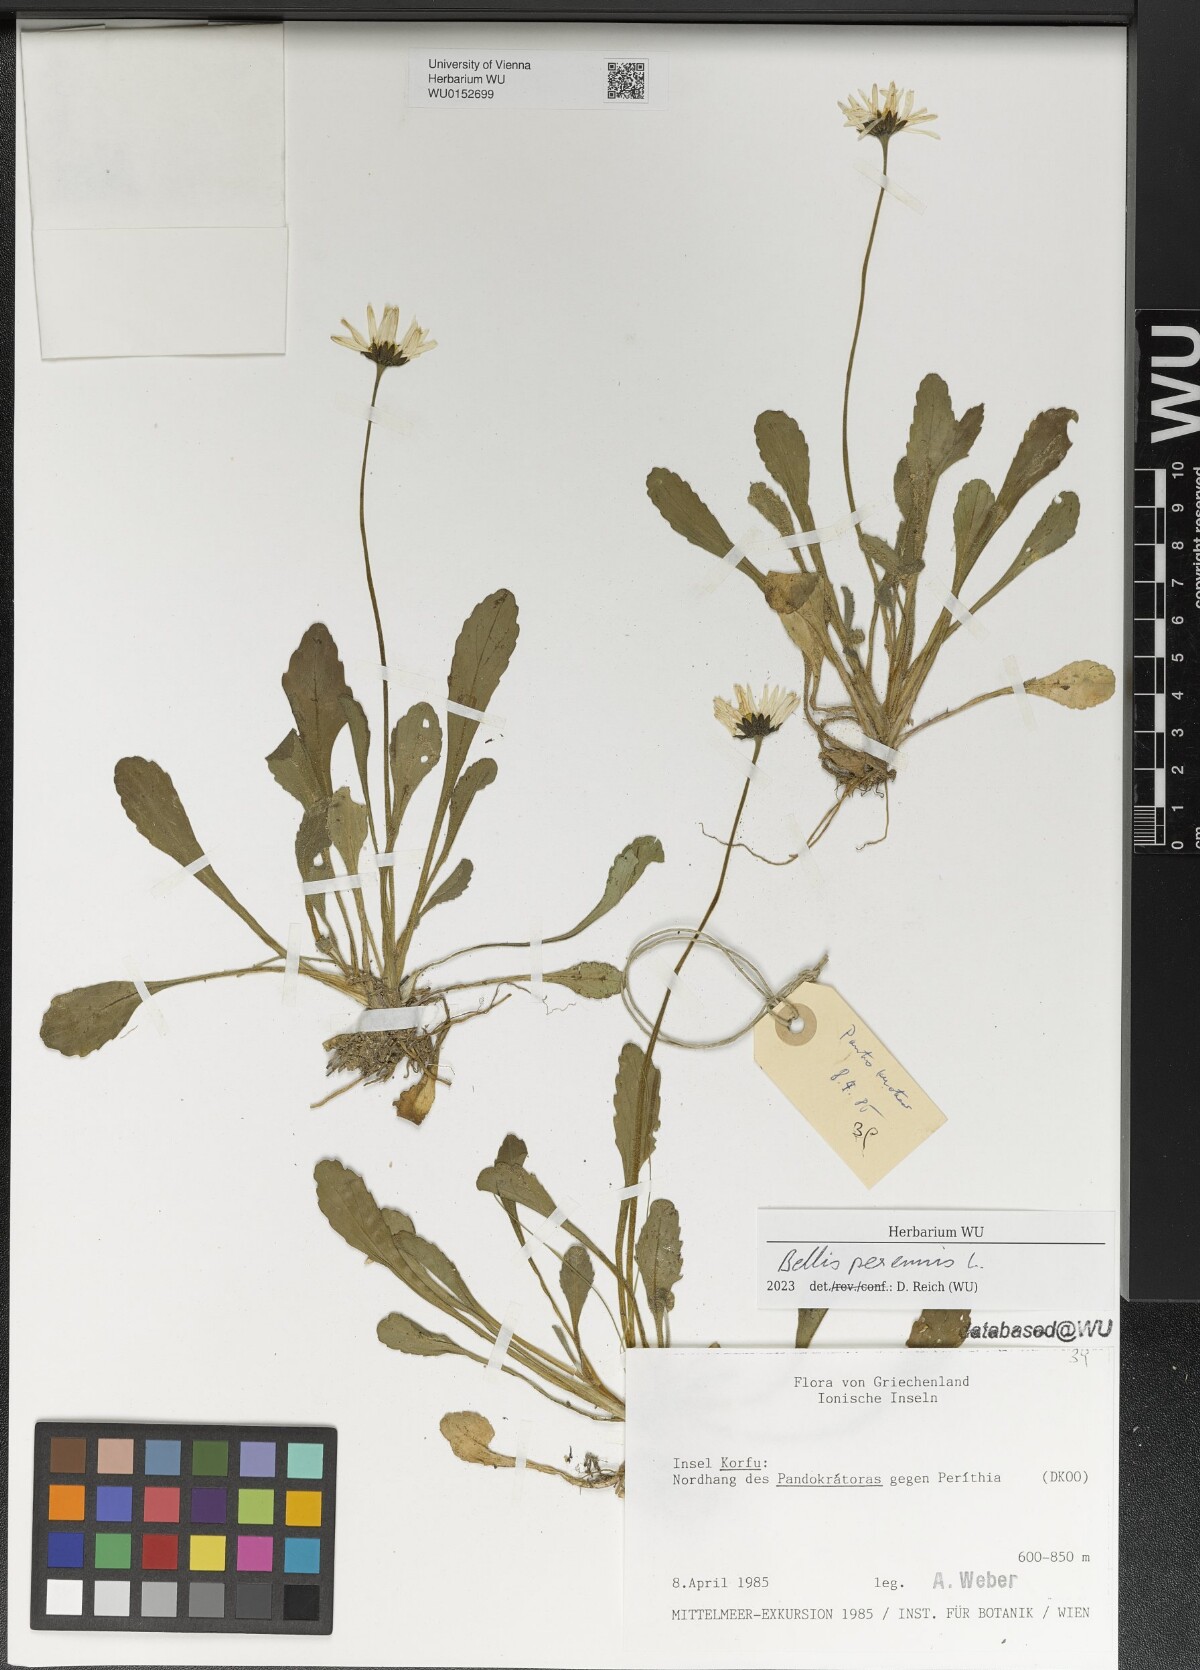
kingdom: Plantae
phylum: Tracheophyta
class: Magnoliopsida
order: Asterales
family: Asteraceae
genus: Bellis
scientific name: Bellis perennis
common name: Lawndaisy
